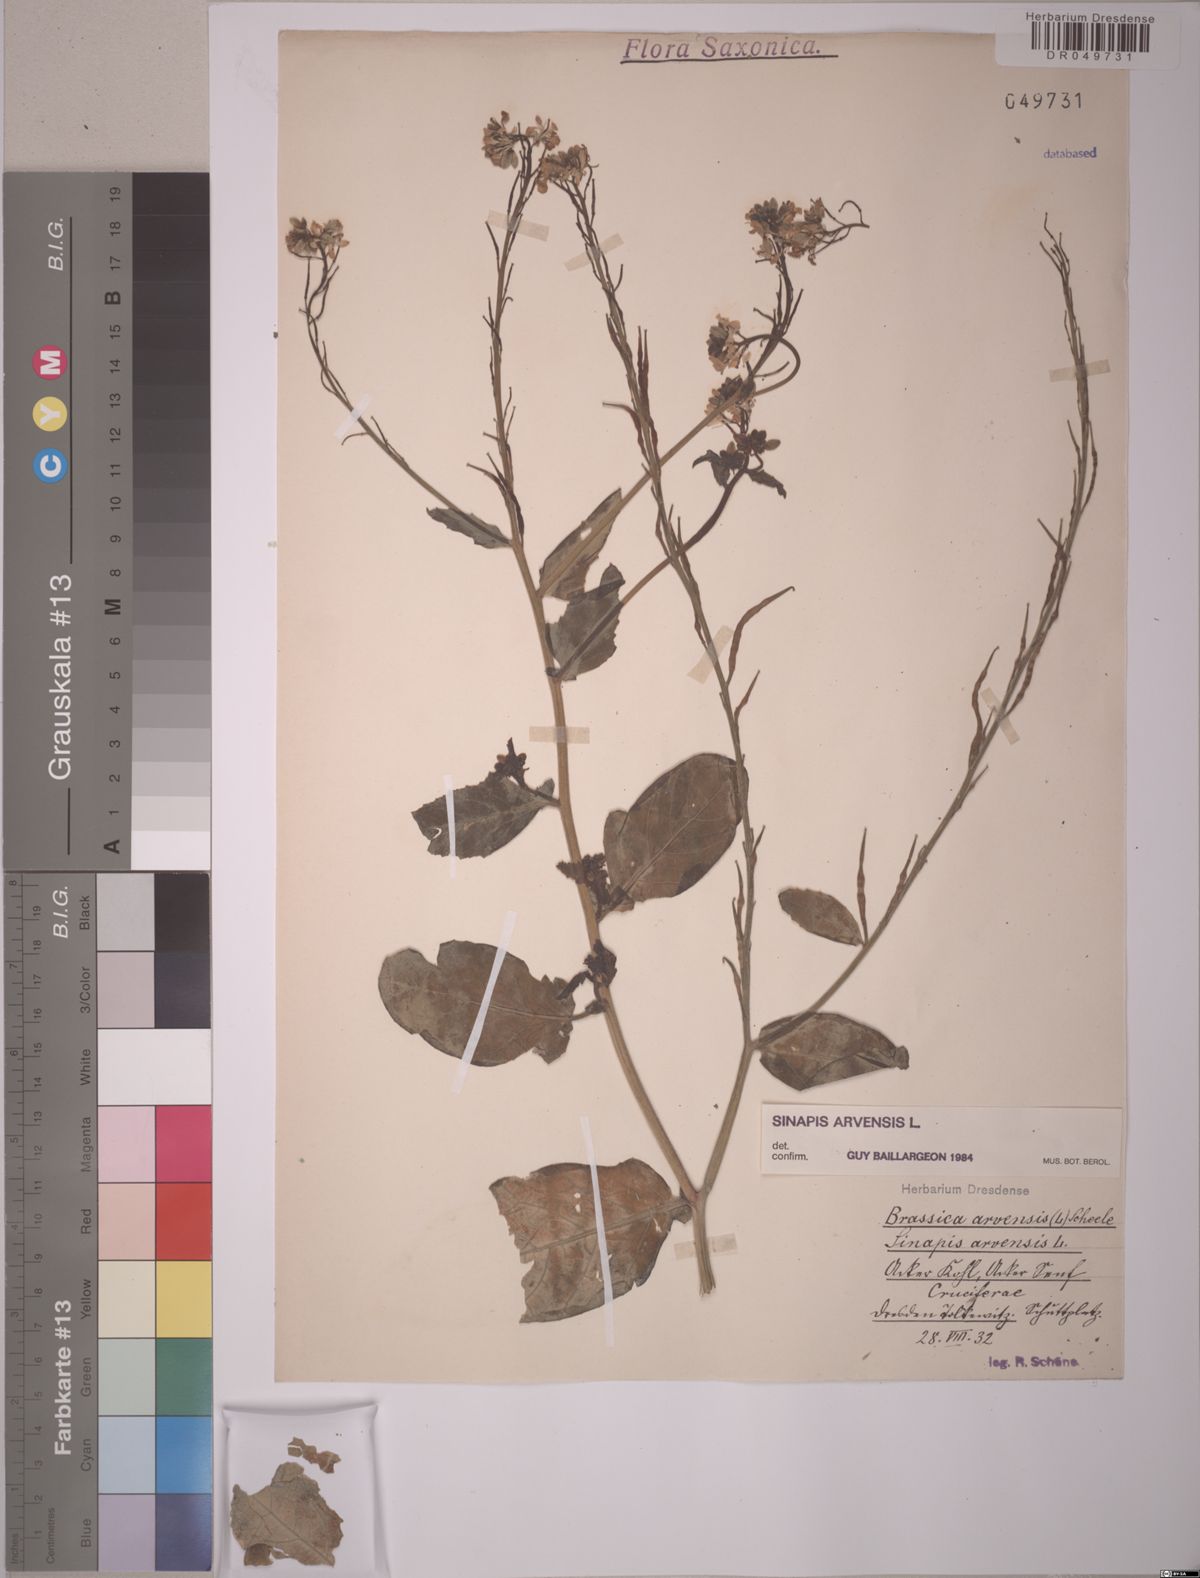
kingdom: Plantae
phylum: Tracheophyta
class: Magnoliopsida
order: Brassicales
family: Brassicaceae
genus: Sinapis
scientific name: Sinapis arvensis
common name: Charlock
